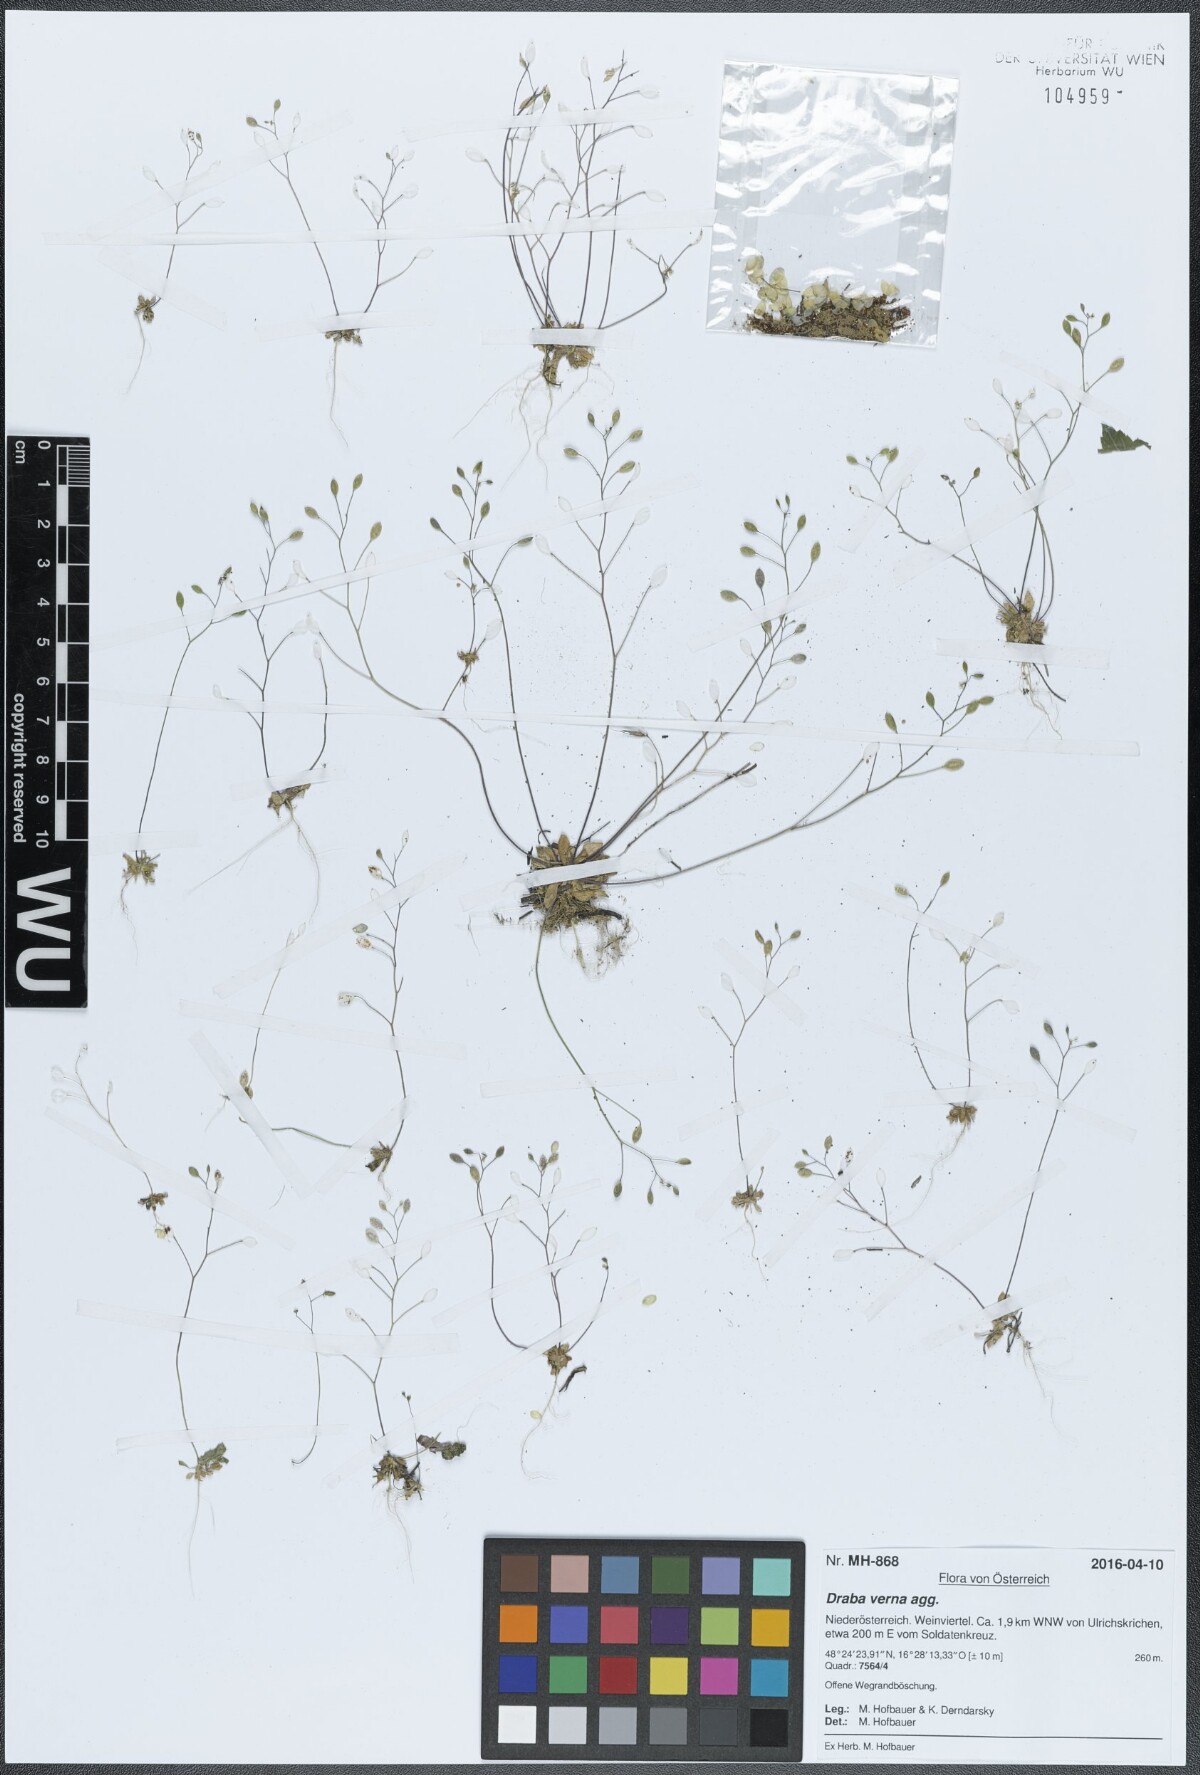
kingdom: Plantae
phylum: Tracheophyta
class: Magnoliopsida
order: Brassicales
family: Brassicaceae
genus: Draba
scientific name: Draba verna
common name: Spring draba
